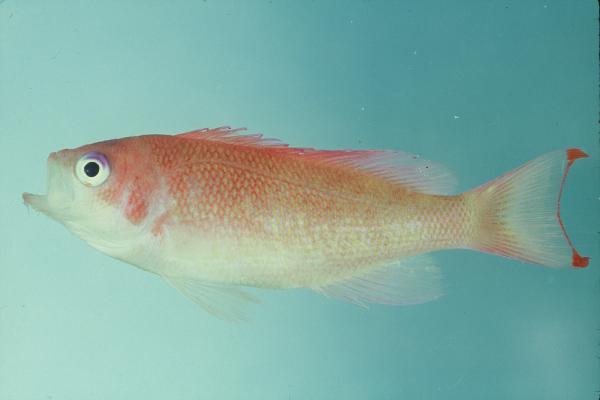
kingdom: Animalia
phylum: Chordata
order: Perciformes
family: Serranidae
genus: Pseudanthias
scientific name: Pseudanthias hypselosoma
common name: Pink basslet
